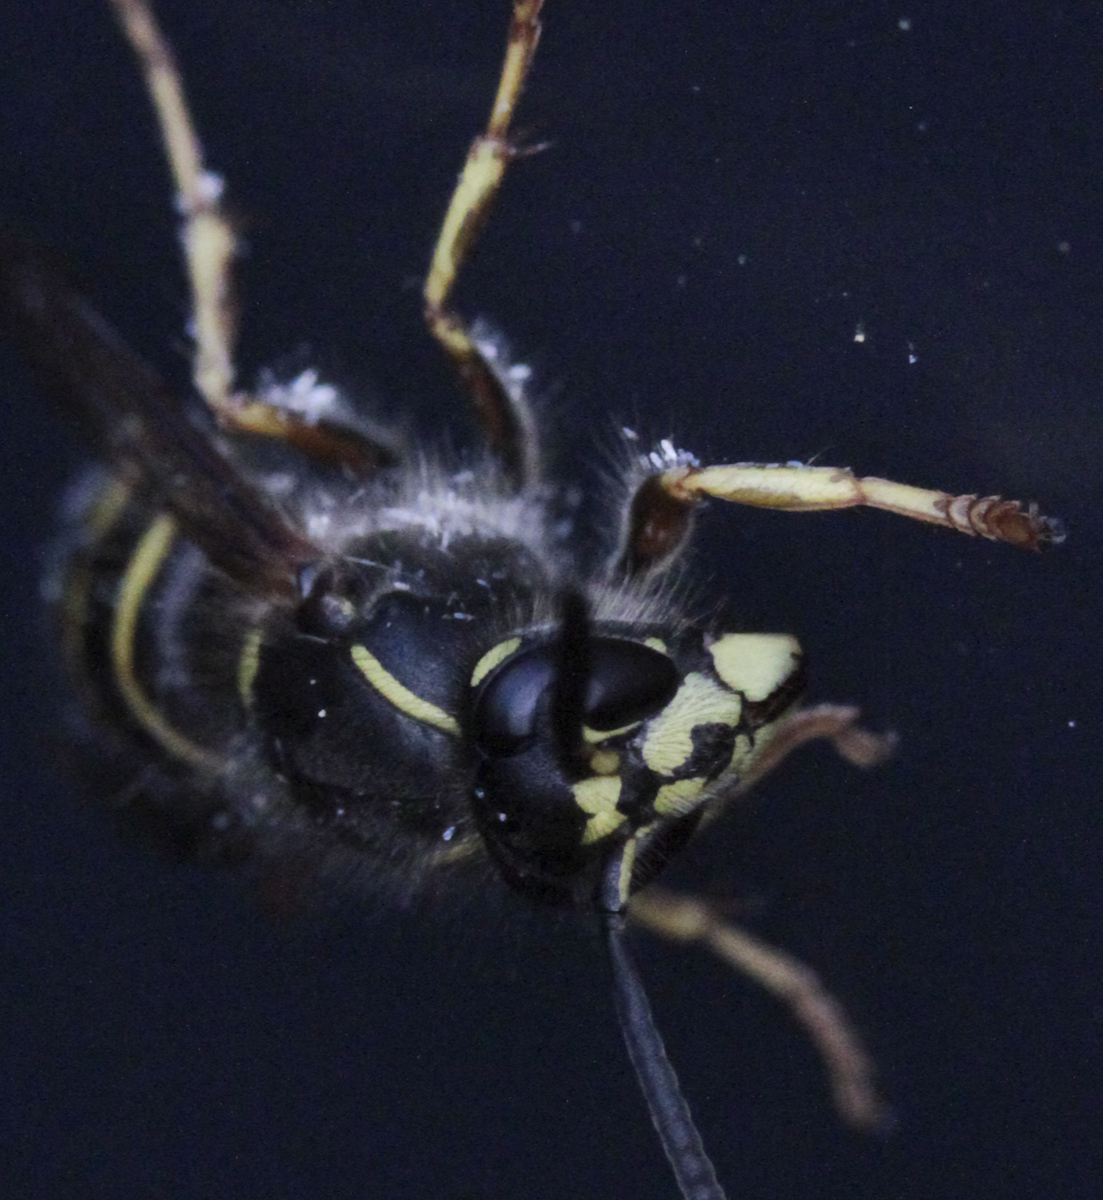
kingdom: Animalia
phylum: Arthropoda
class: Insecta
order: Hymenoptera
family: Vespidae
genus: Dolichovespula
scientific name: Dolichovespula saxonica
